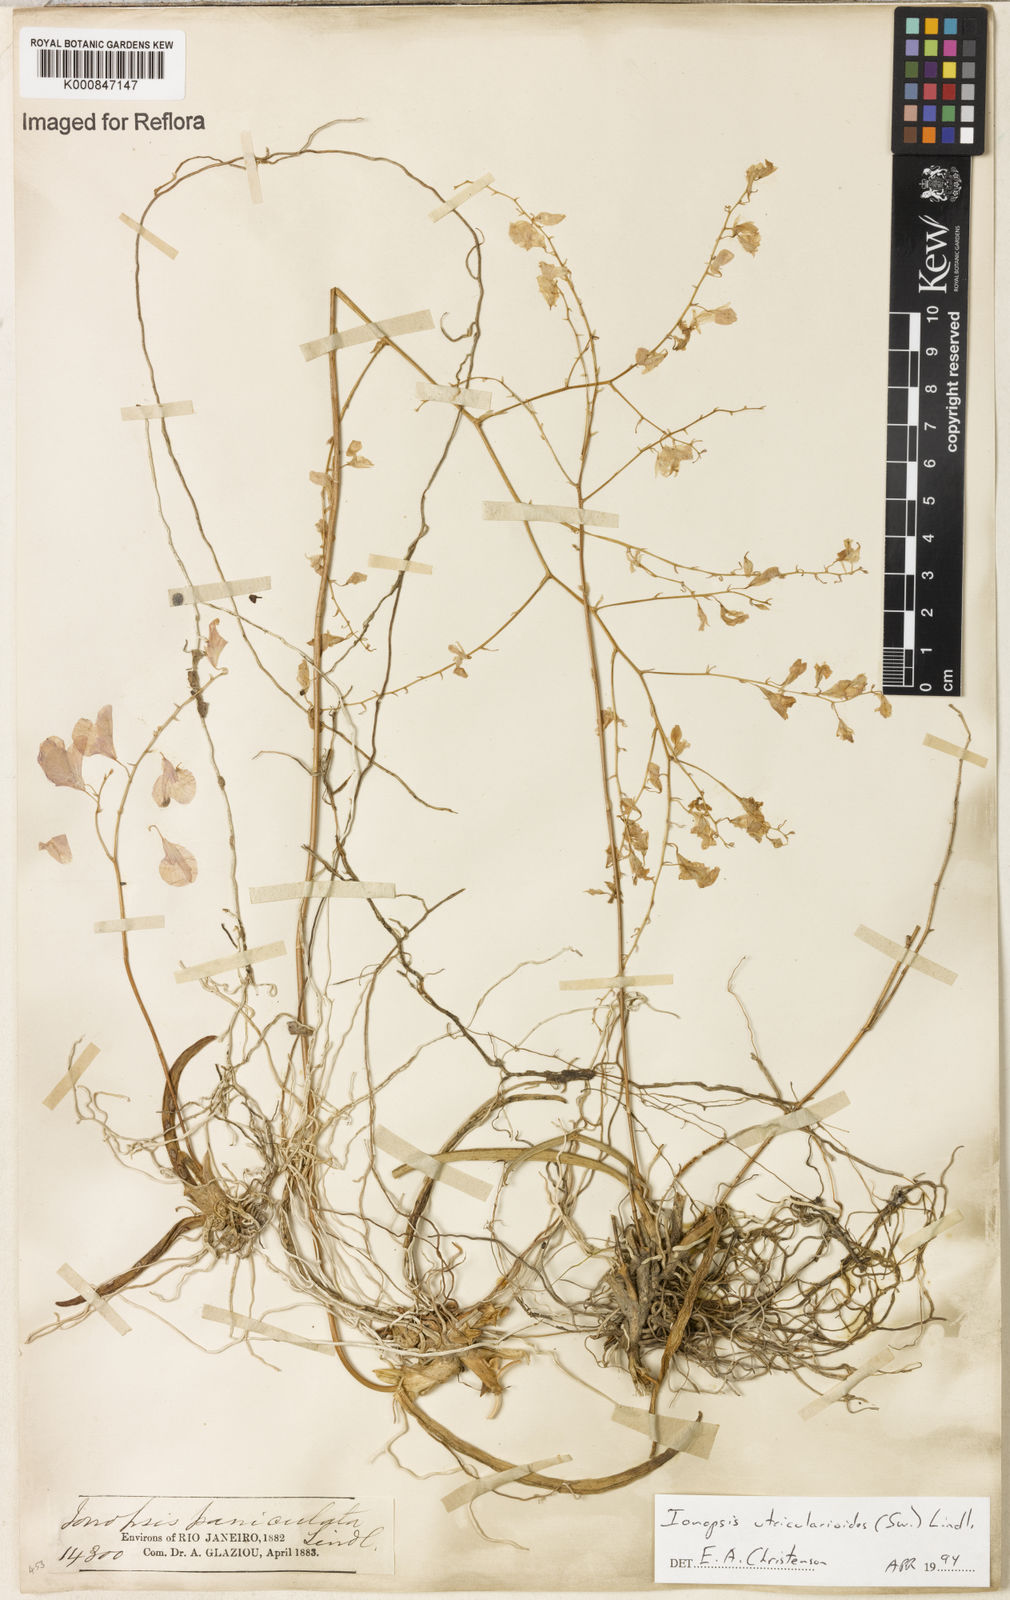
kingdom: Plantae
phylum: Tracheophyta
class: Liliopsida
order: Asparagales
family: Orchidaceae
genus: Ionopsis
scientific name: Ionopsis utricularioides
